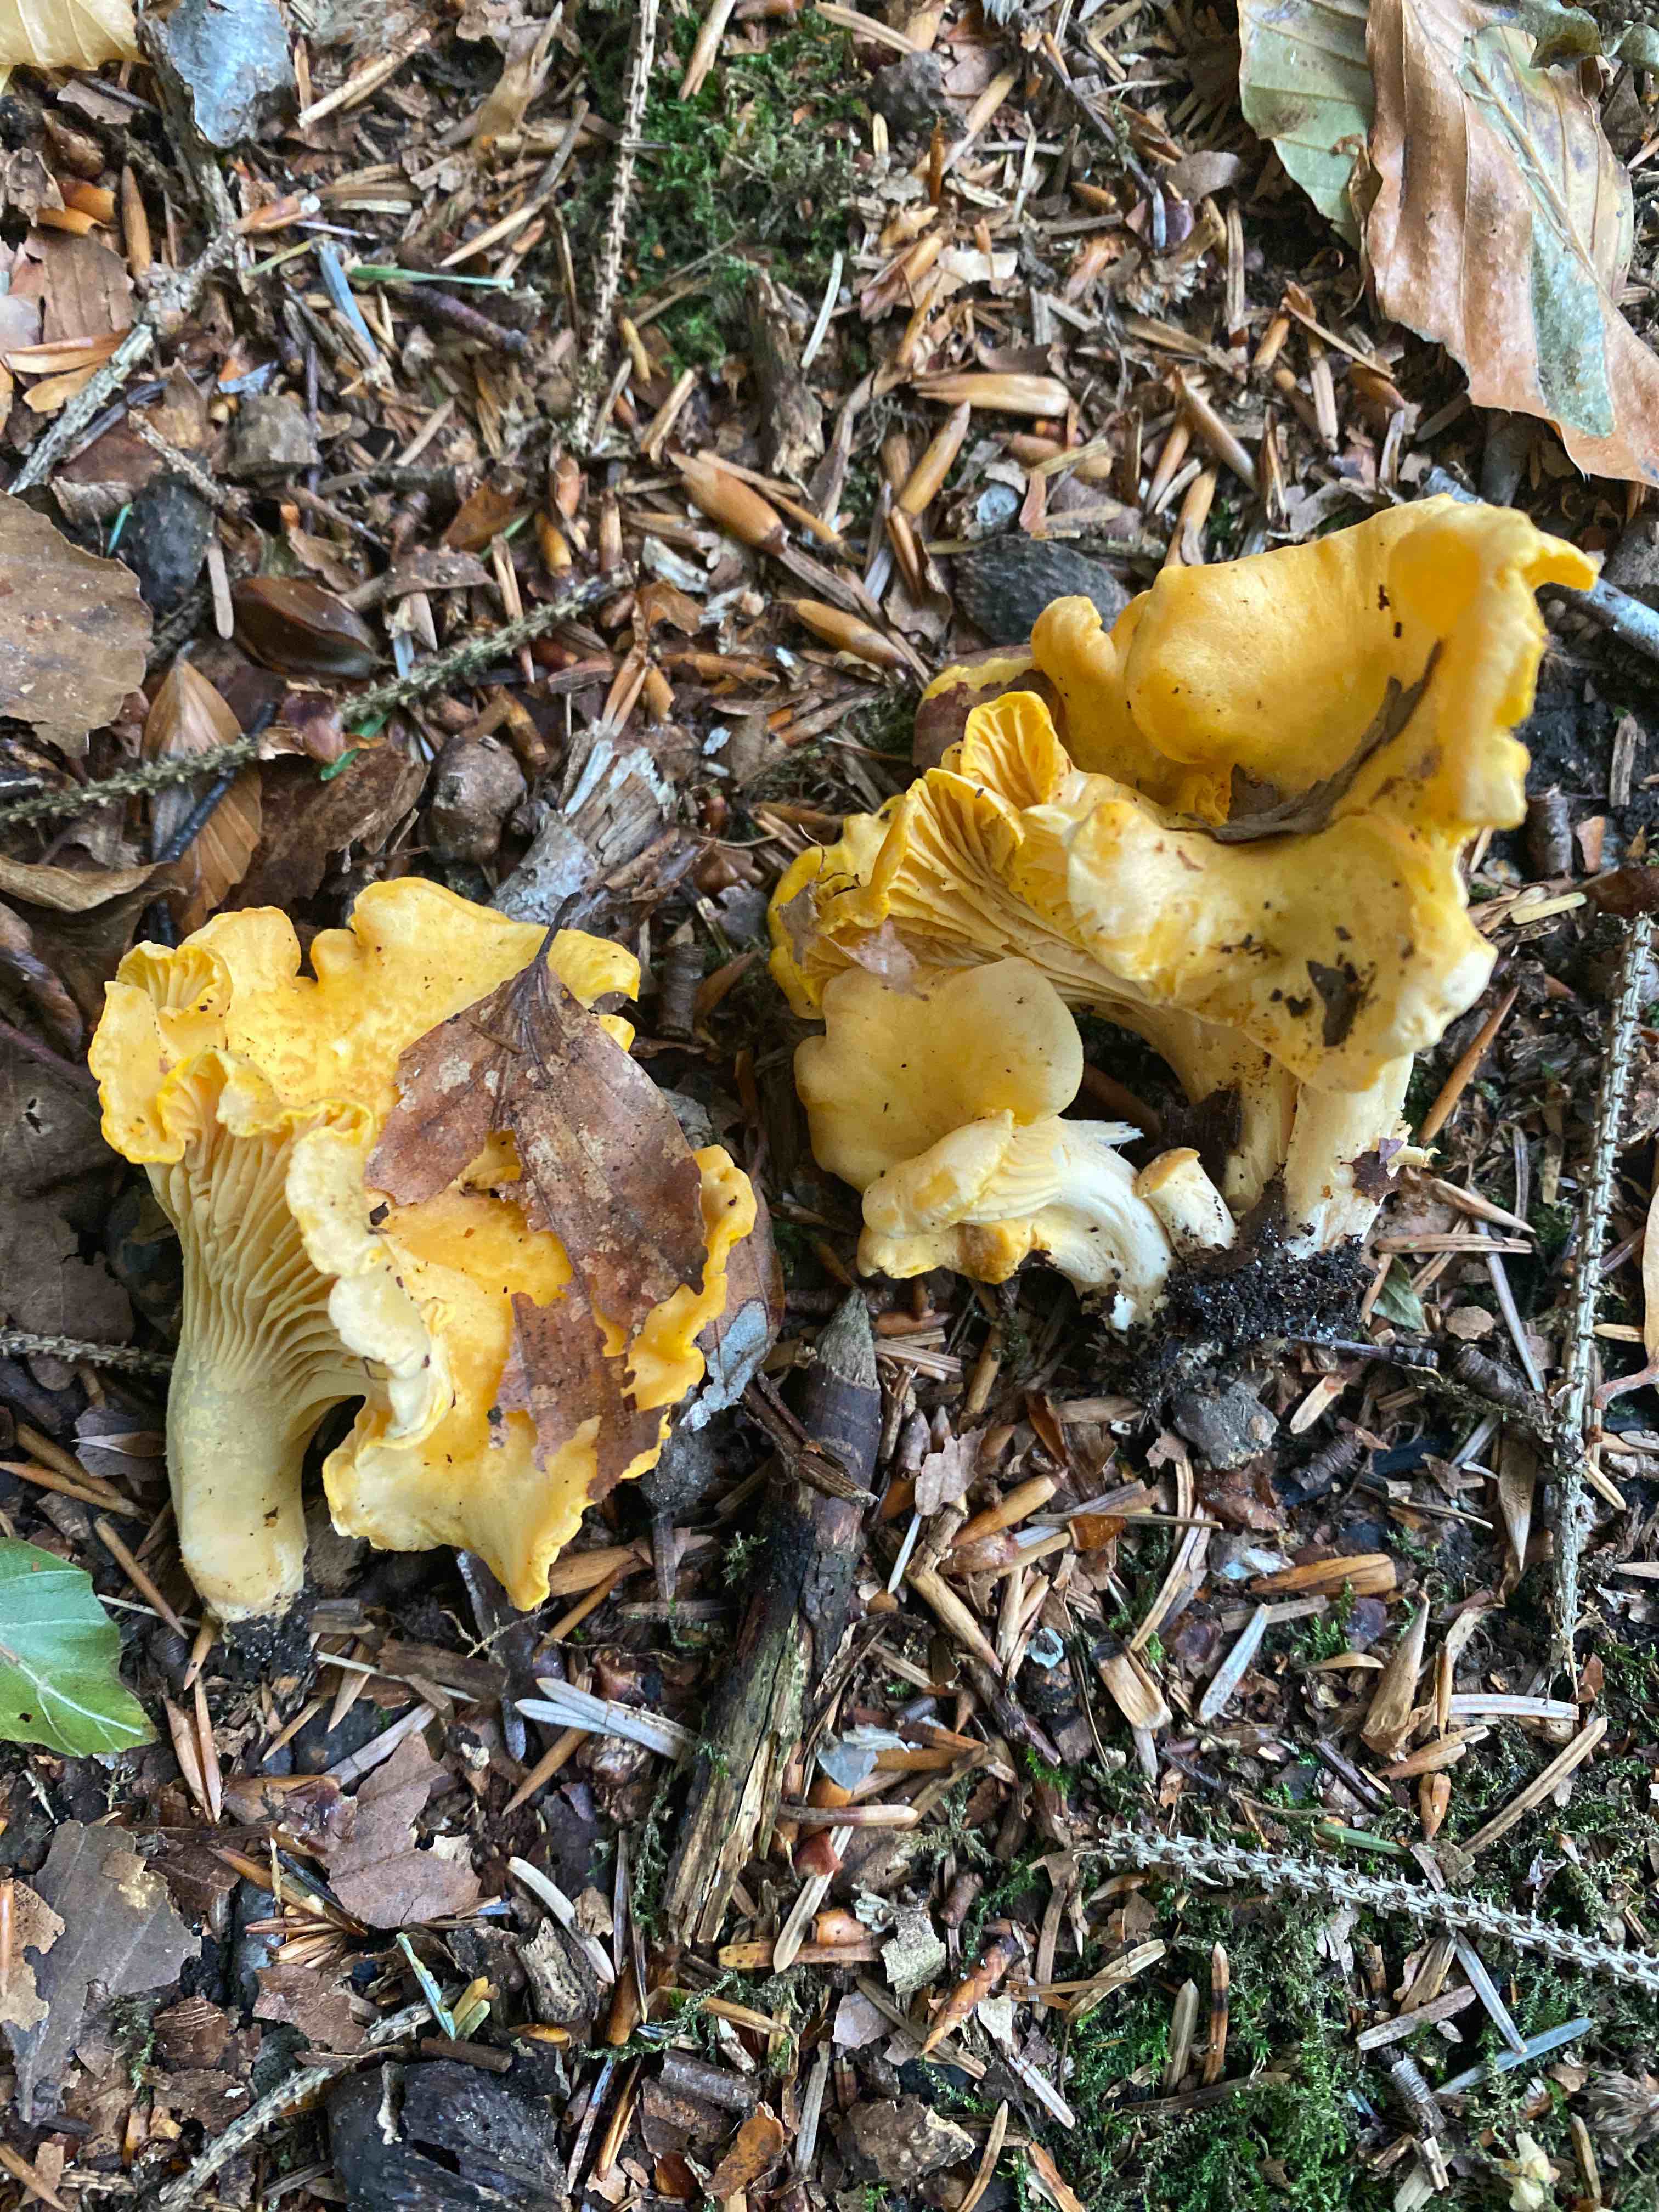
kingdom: Fungi
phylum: Basidiomycota
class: Agaricomycetes
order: Cantharellales
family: Hydnaceae
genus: Cantharellus
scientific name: Cantharellus
